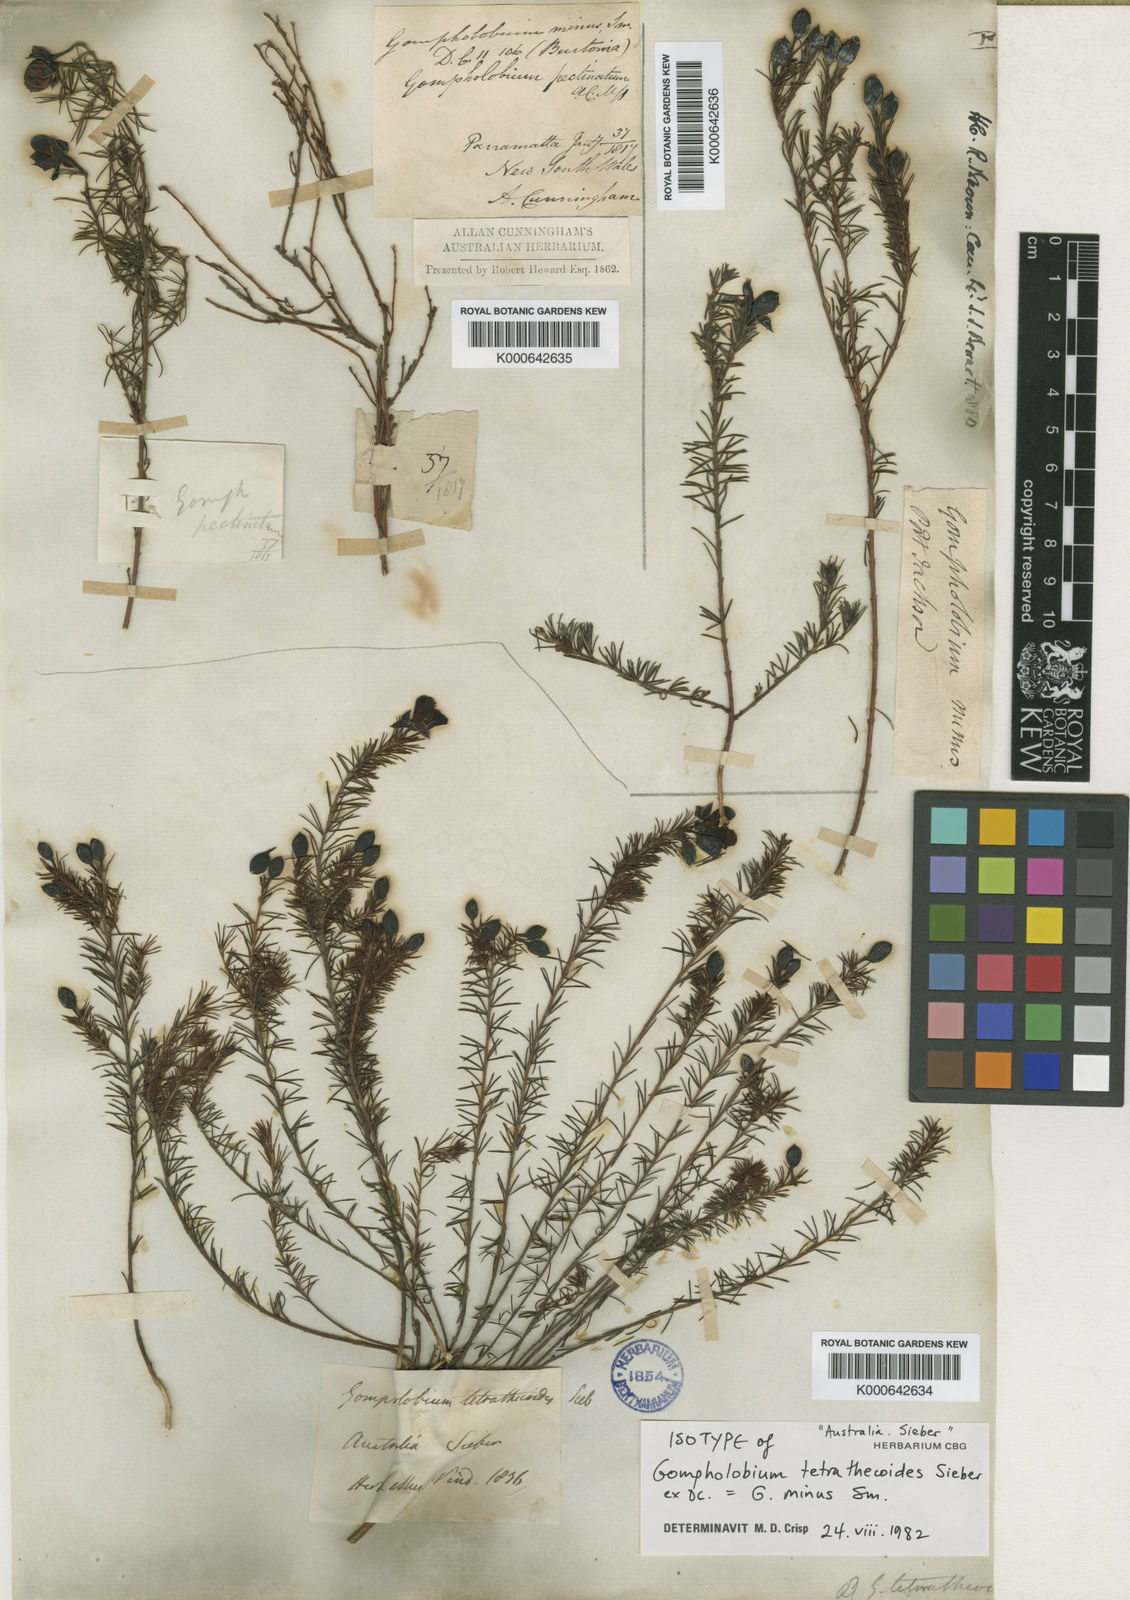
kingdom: Plantae
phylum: Tracheophyta
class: Magnoliopsida
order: Fabales
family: Fabaceae
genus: Gompholobium
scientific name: Gompholobium minus
